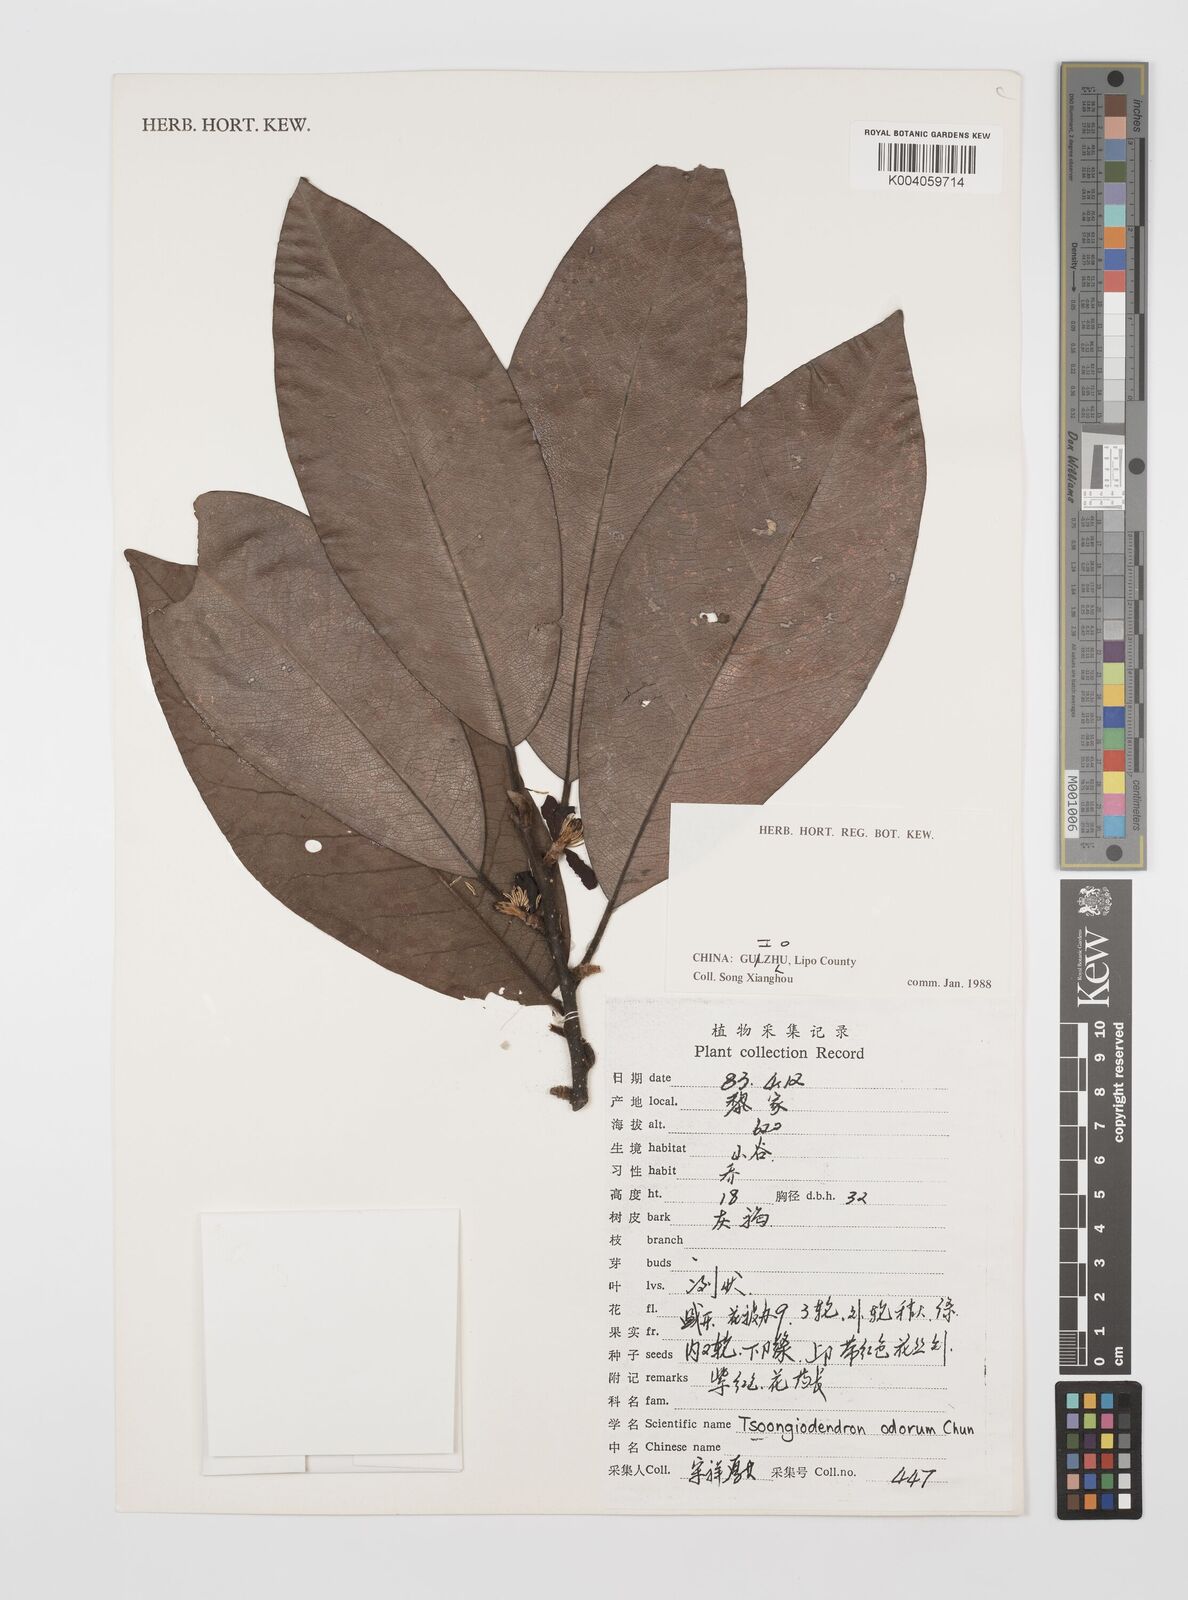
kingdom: Plantae
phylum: Tracheophyta
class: Magnoliopsida
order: Magnoliales
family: Magnoliaceae
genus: Magnolia
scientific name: Magnolia odora
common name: Tsong's tree
